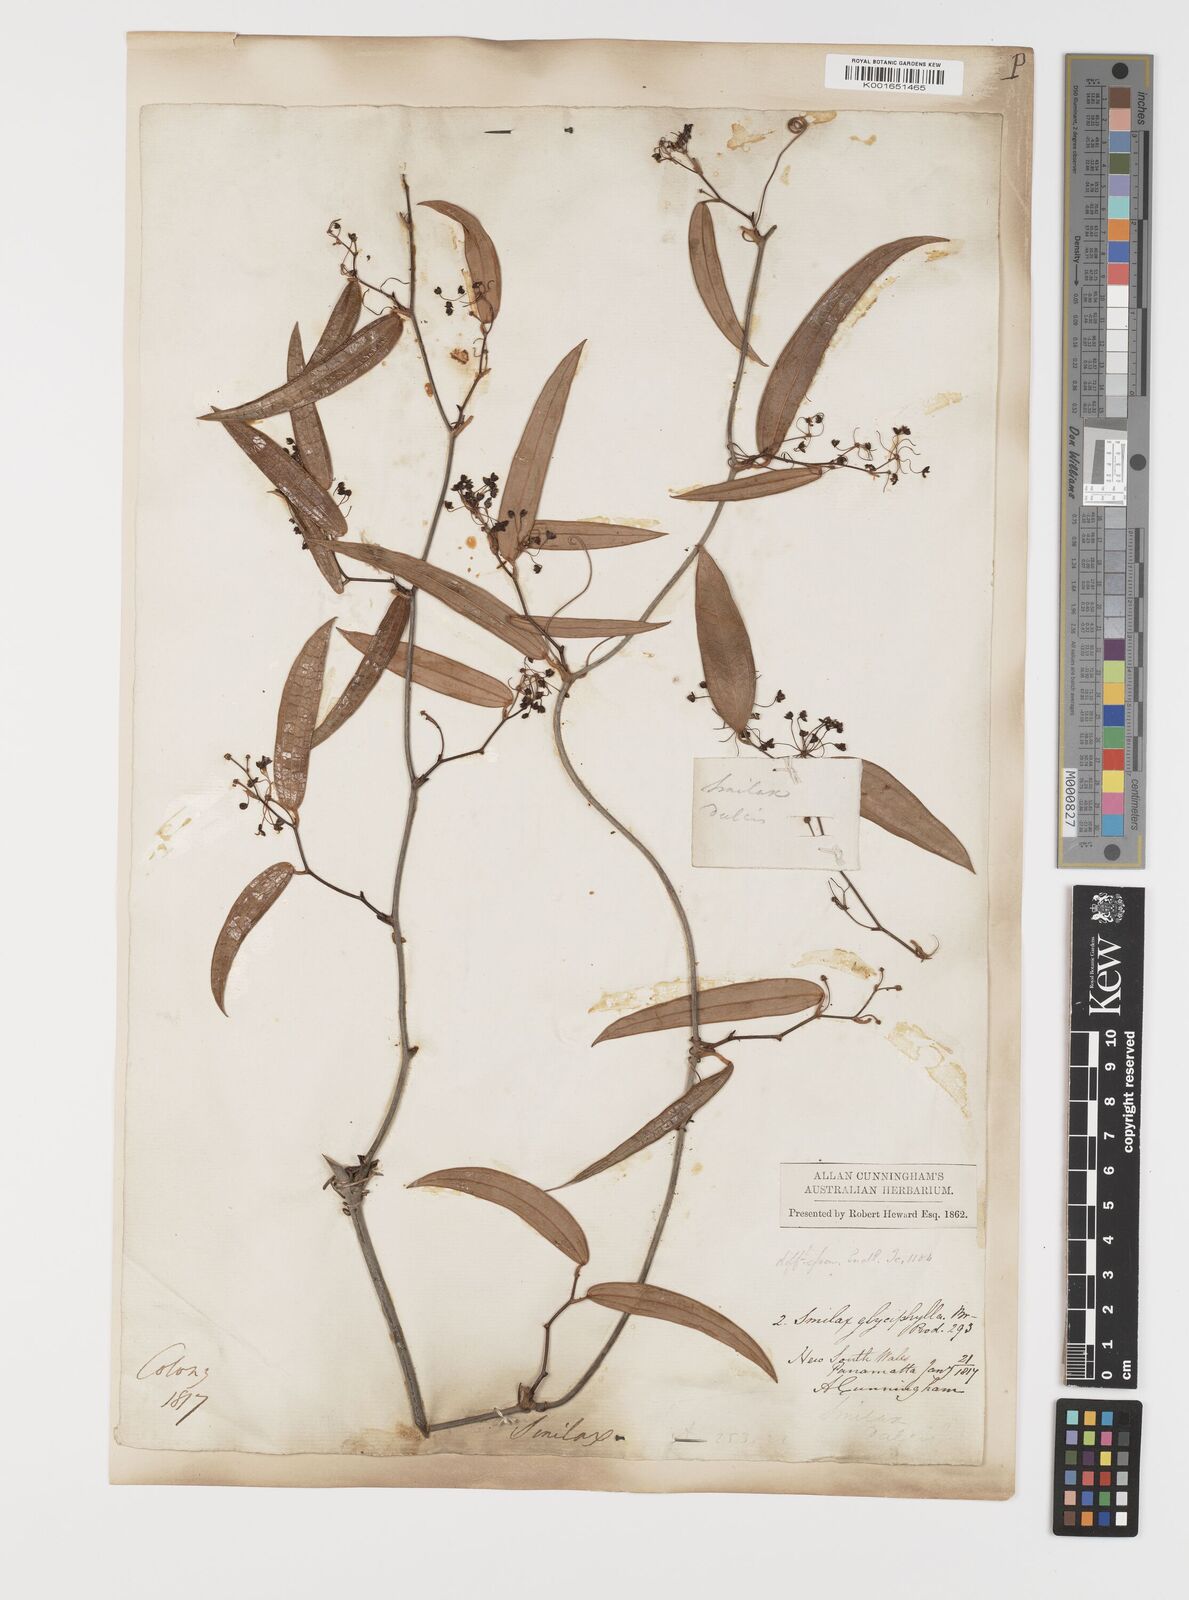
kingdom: Plantae
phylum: Tracheophyta
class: Liliopsida
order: Liliales
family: Smilacaceae
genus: Smilax
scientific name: Smilax glyciphylla
